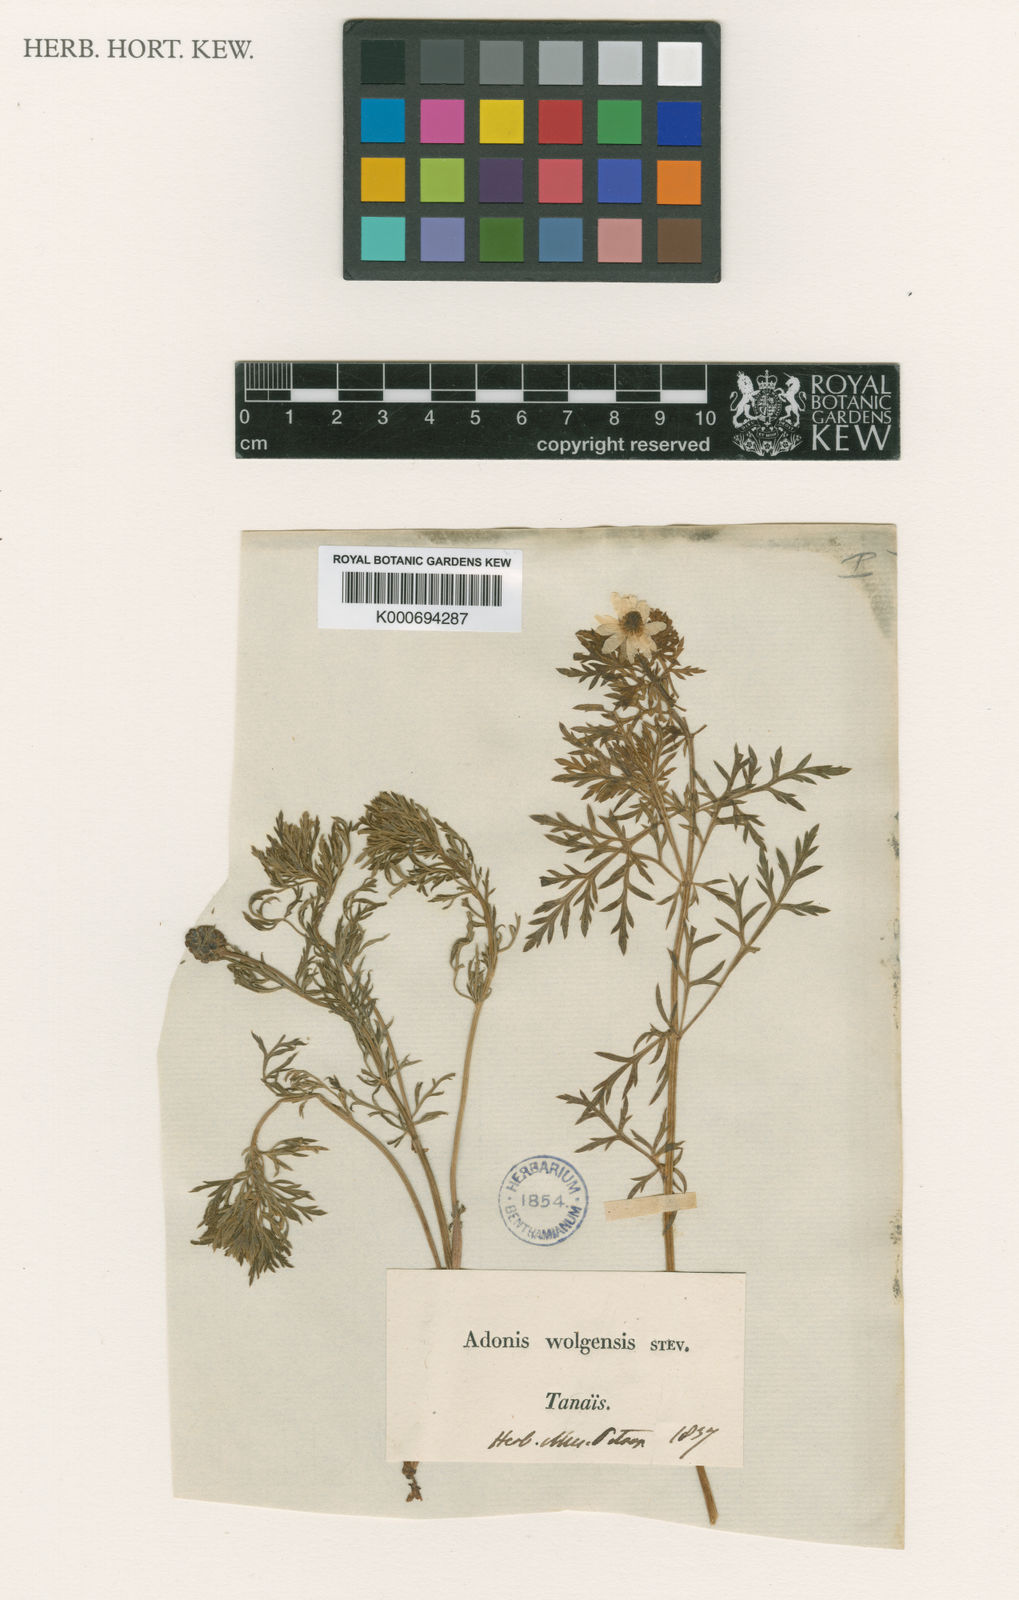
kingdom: Plantae
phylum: Tracheophyta
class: Magnoliopsida
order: Ranunculales
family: Ranunculaceae
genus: Adonis
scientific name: Adonis
